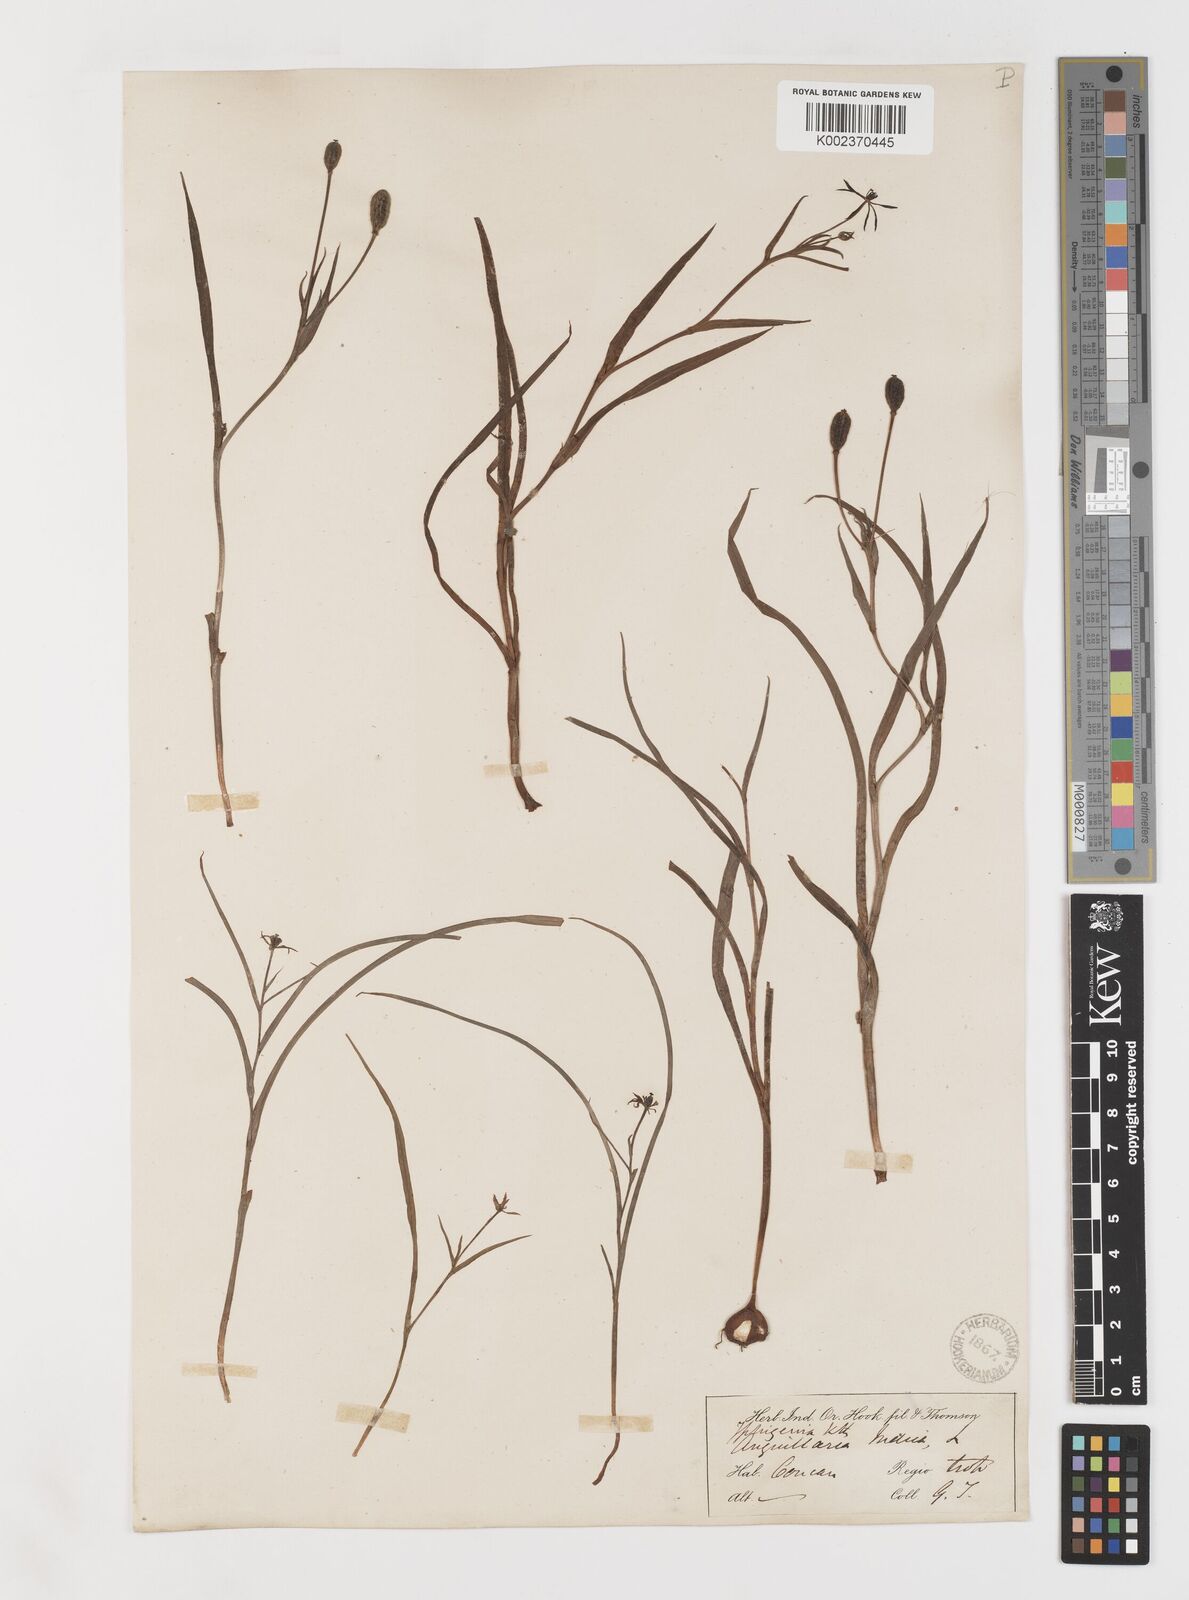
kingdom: Plantae
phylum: Tracheophyta
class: Liliopsida
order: Liliales
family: Colchicaceae
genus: Iphigenia
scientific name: Iphigenia indica
